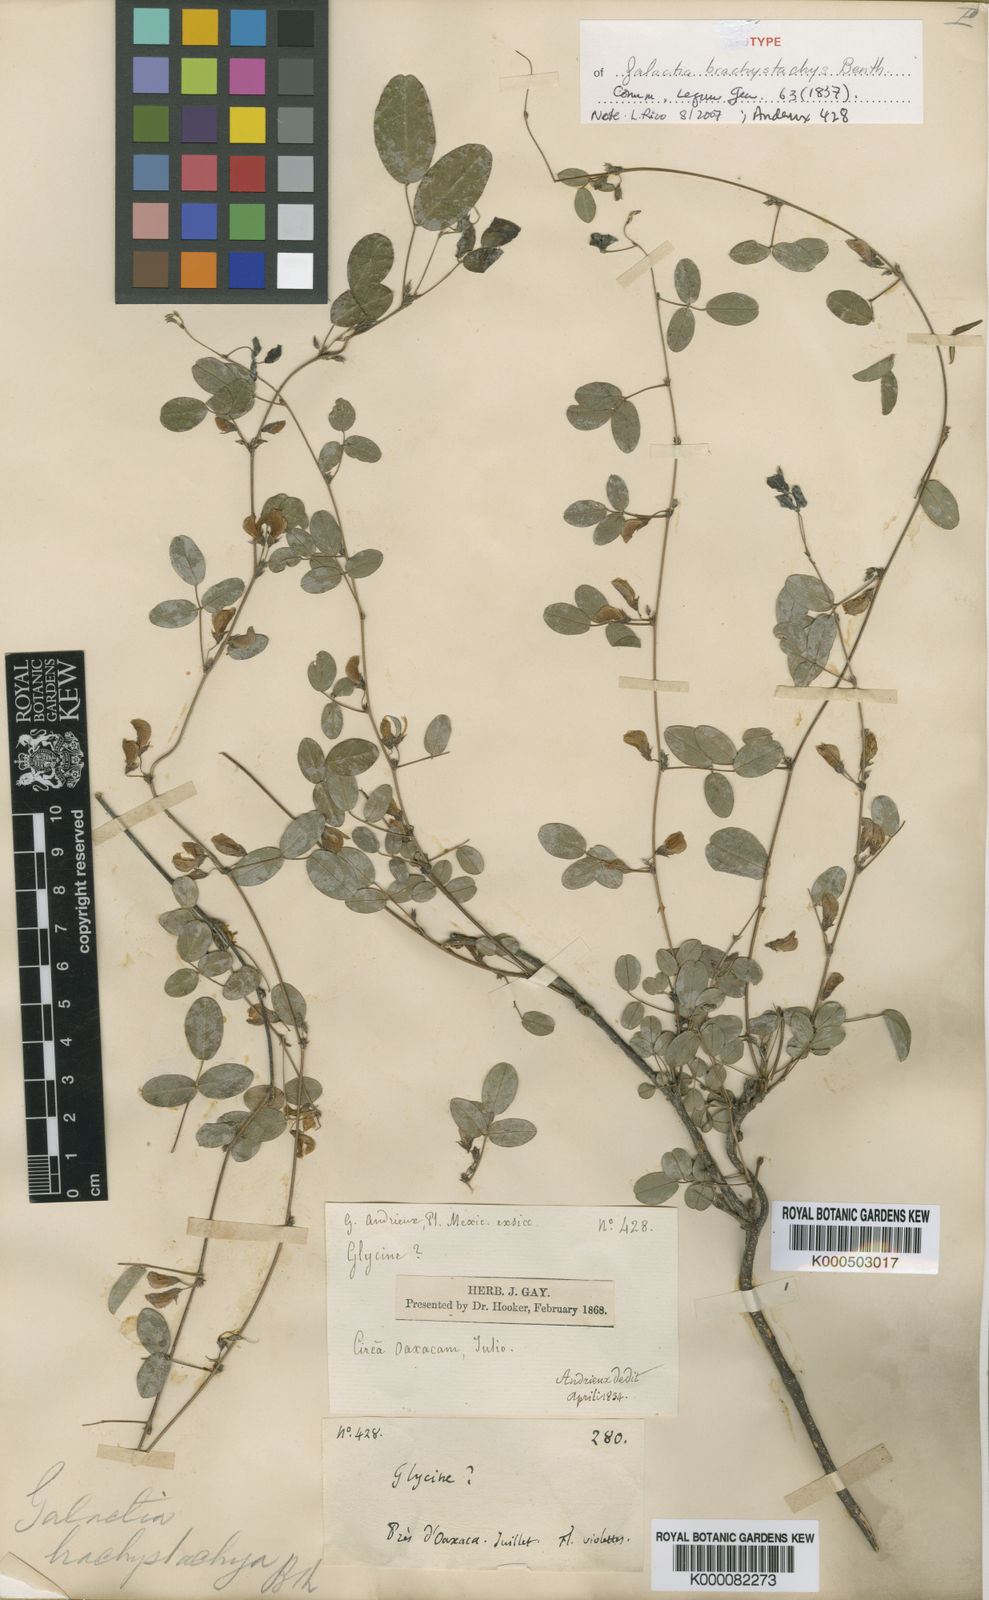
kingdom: Plantae
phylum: Tracheophyta
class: Magnoliopsida
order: Fabales
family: Fabaceae
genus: Nanogalactia
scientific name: Nanogalactia brachystachys
